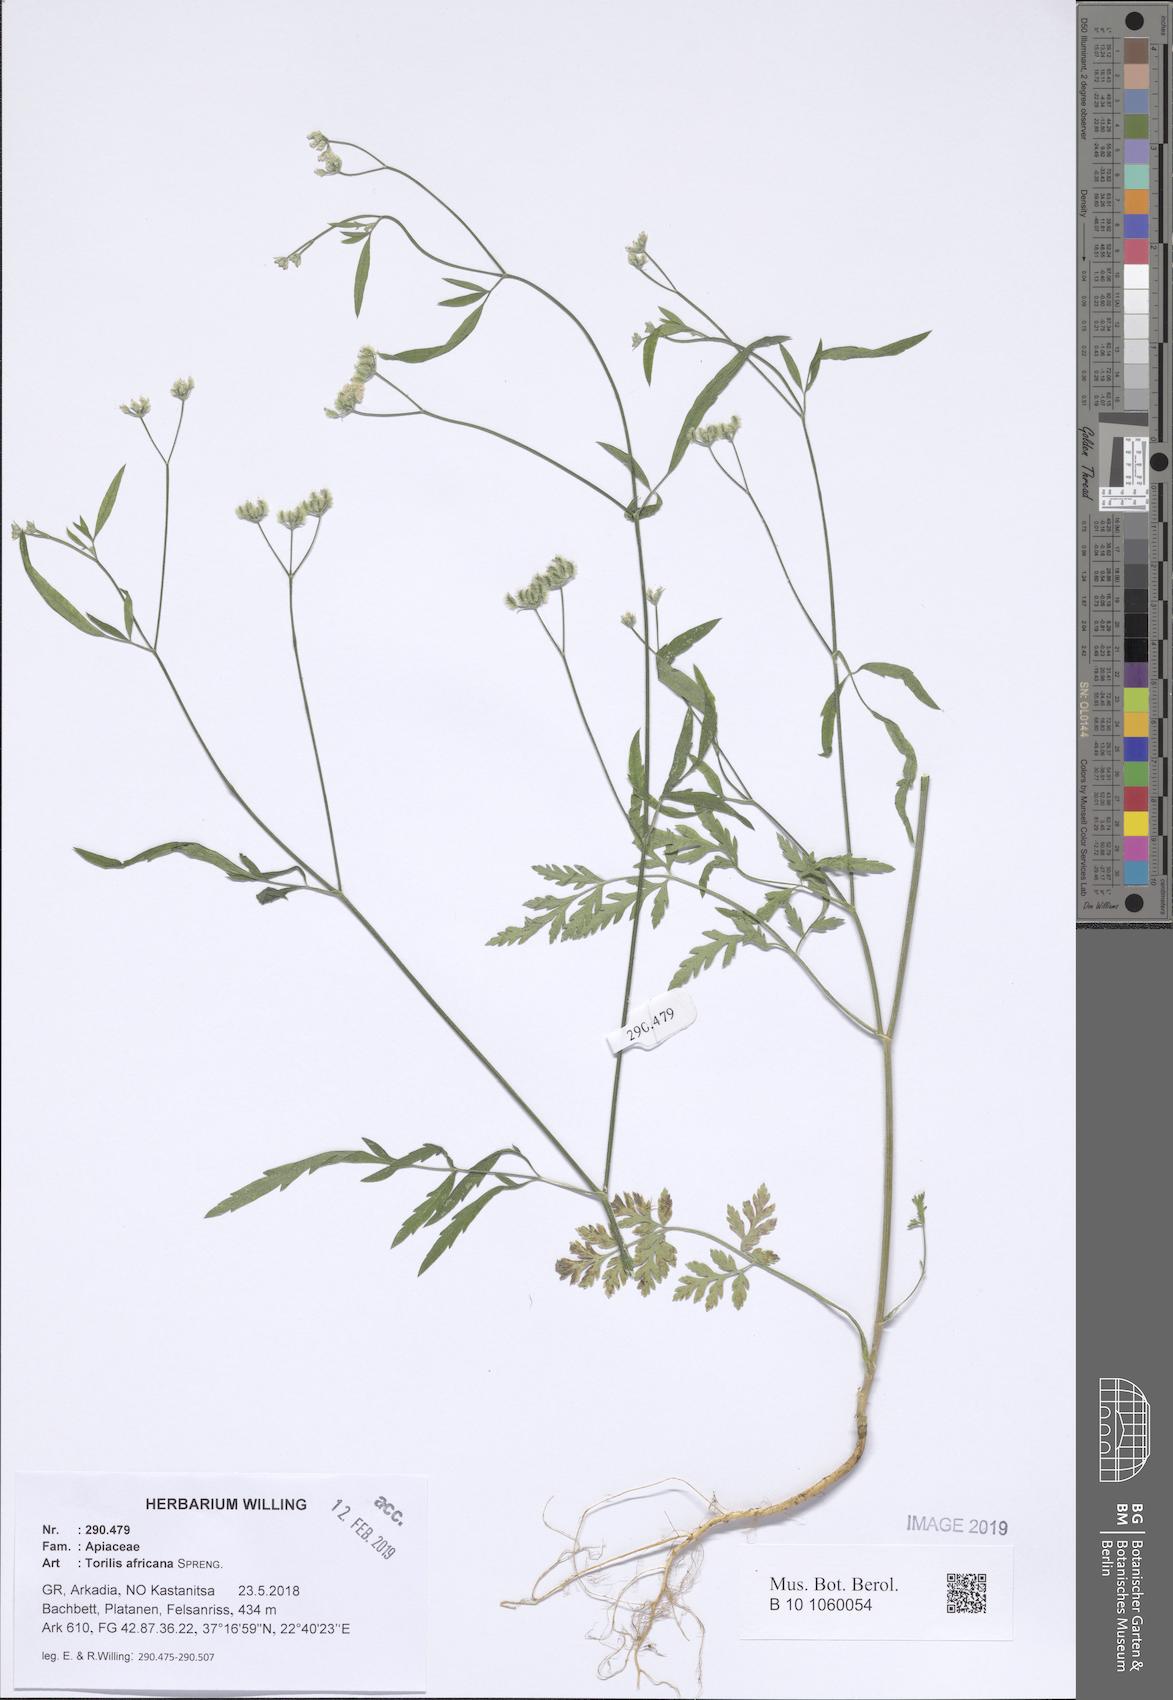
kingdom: Plantae
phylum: Tracheophyta
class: Magnoliopsida
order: Apiales
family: Apiaceae
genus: Torilis
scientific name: Torilis africana
